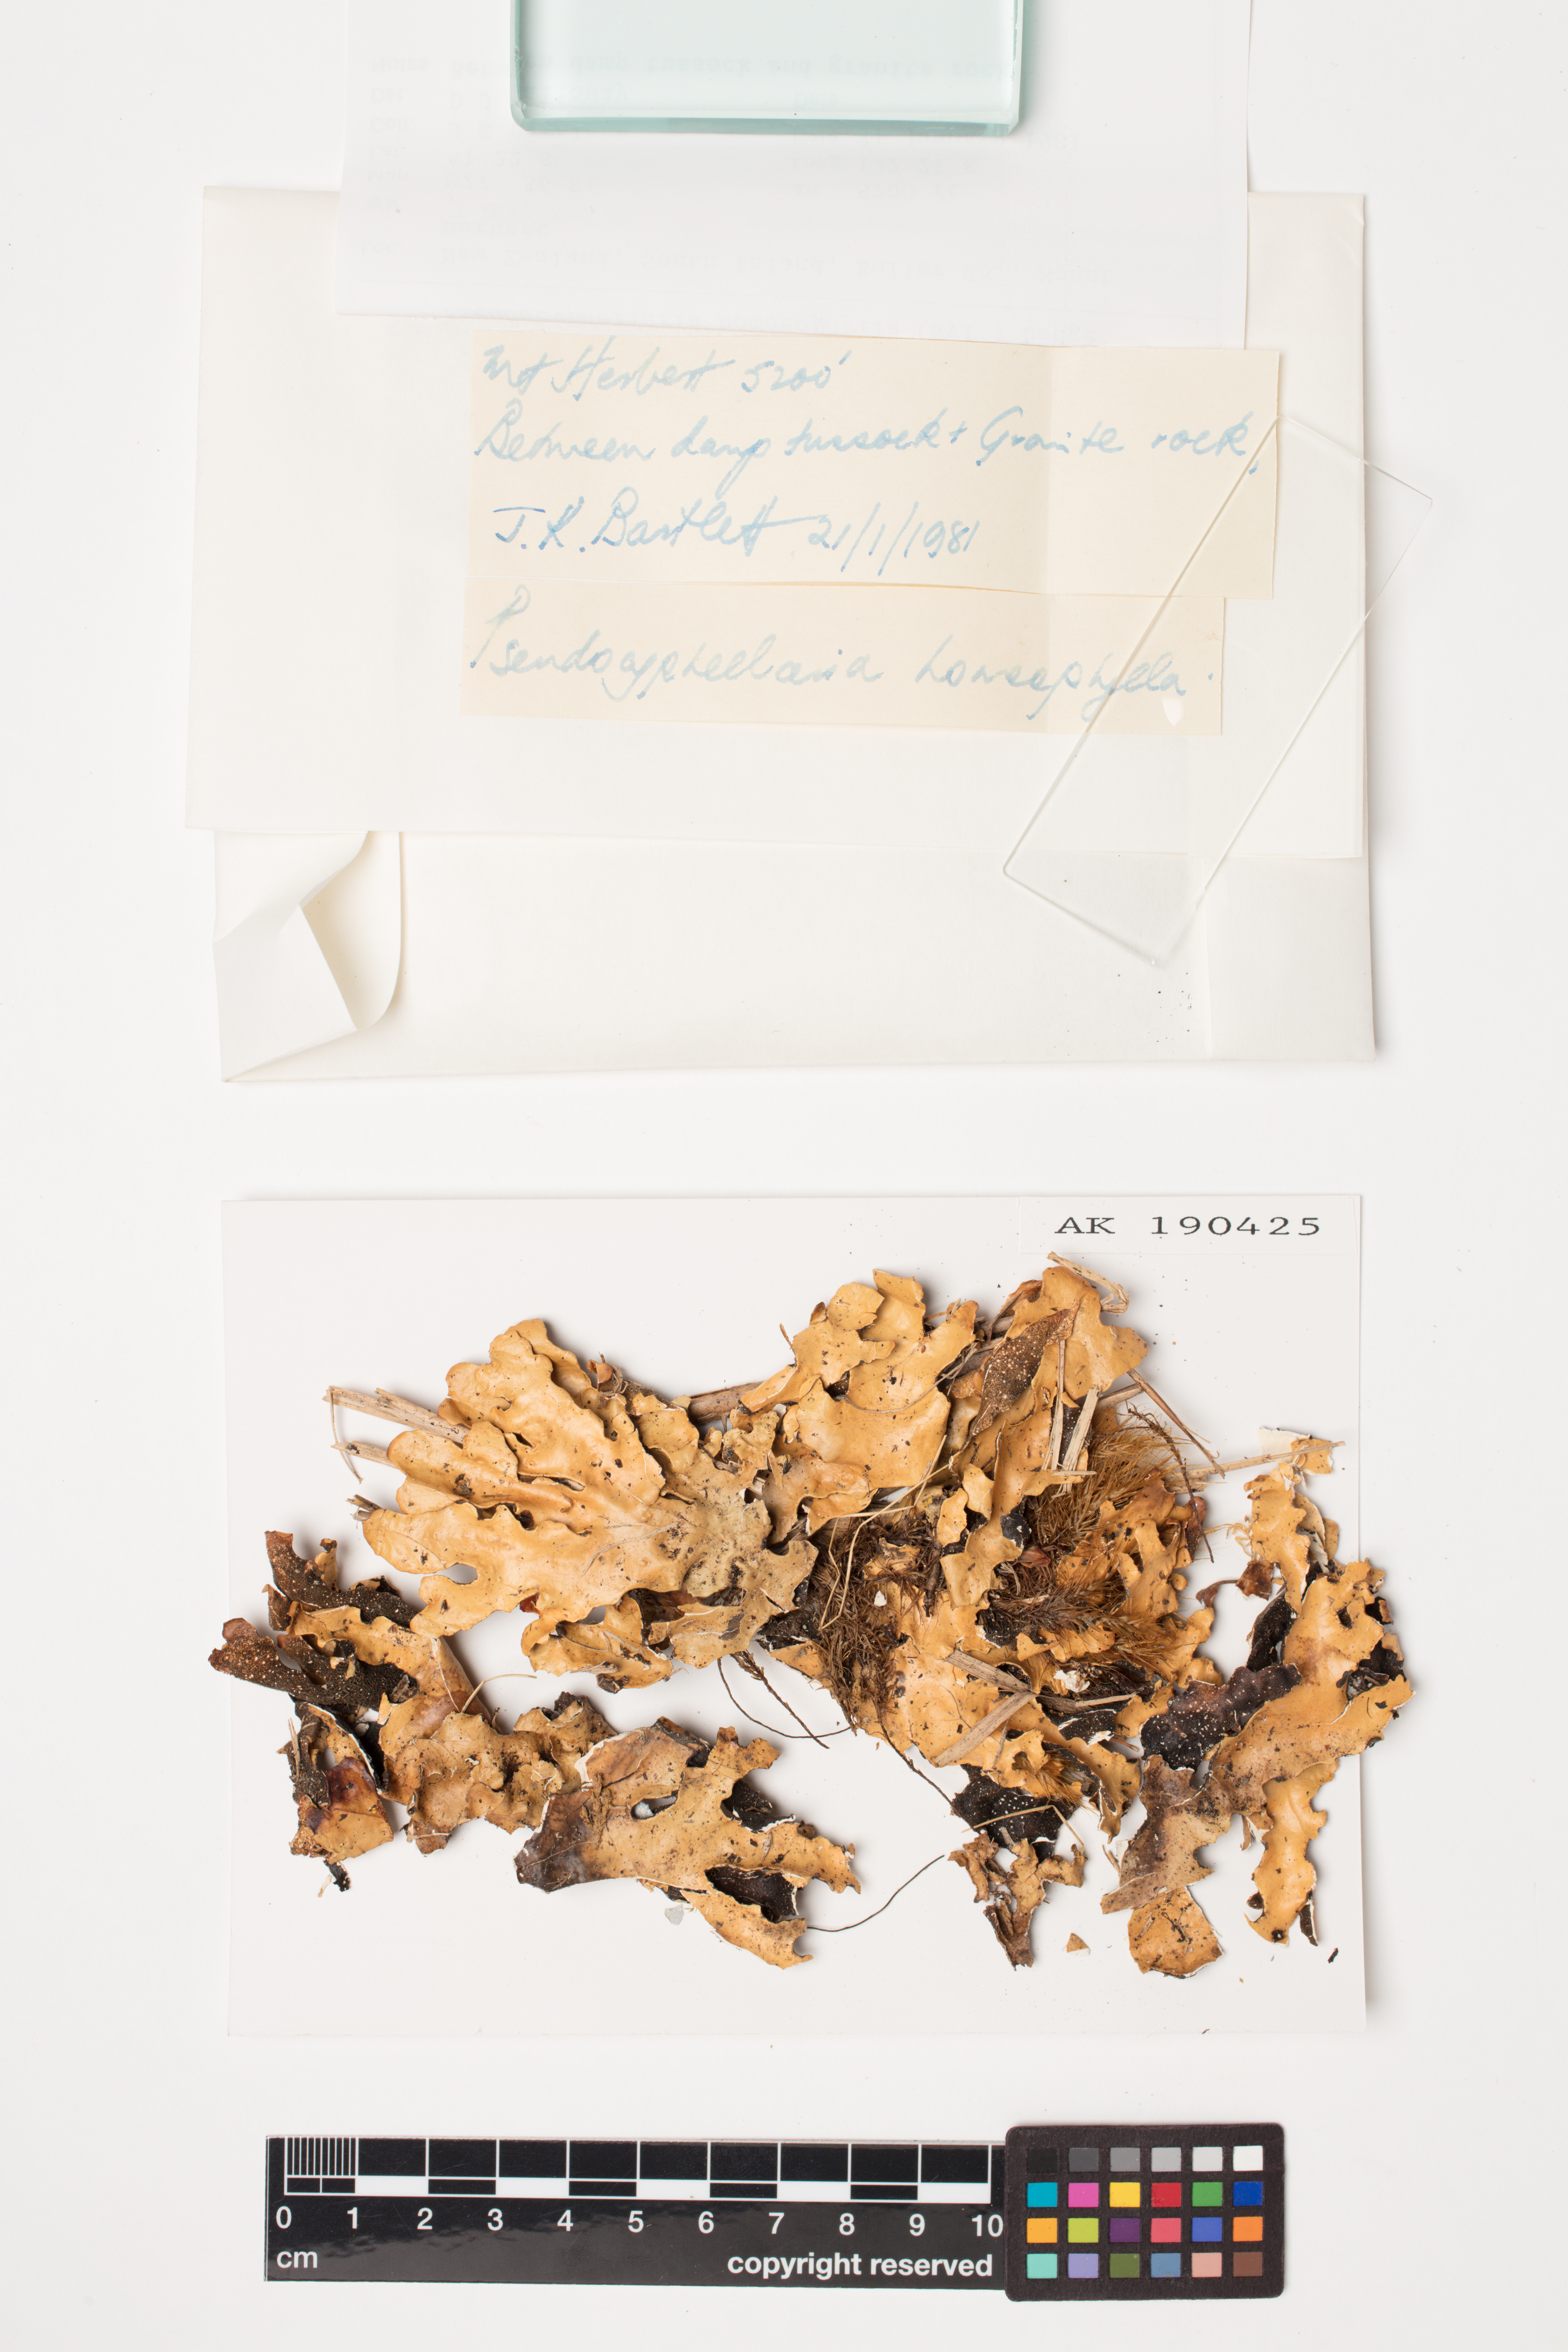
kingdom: Fungi
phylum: Ascomycota
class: Lecanoromycetes
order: Peltigerales
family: Lobariaceae
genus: Pseudocyphellaria
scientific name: Pseudocyphellaria homeophylla
